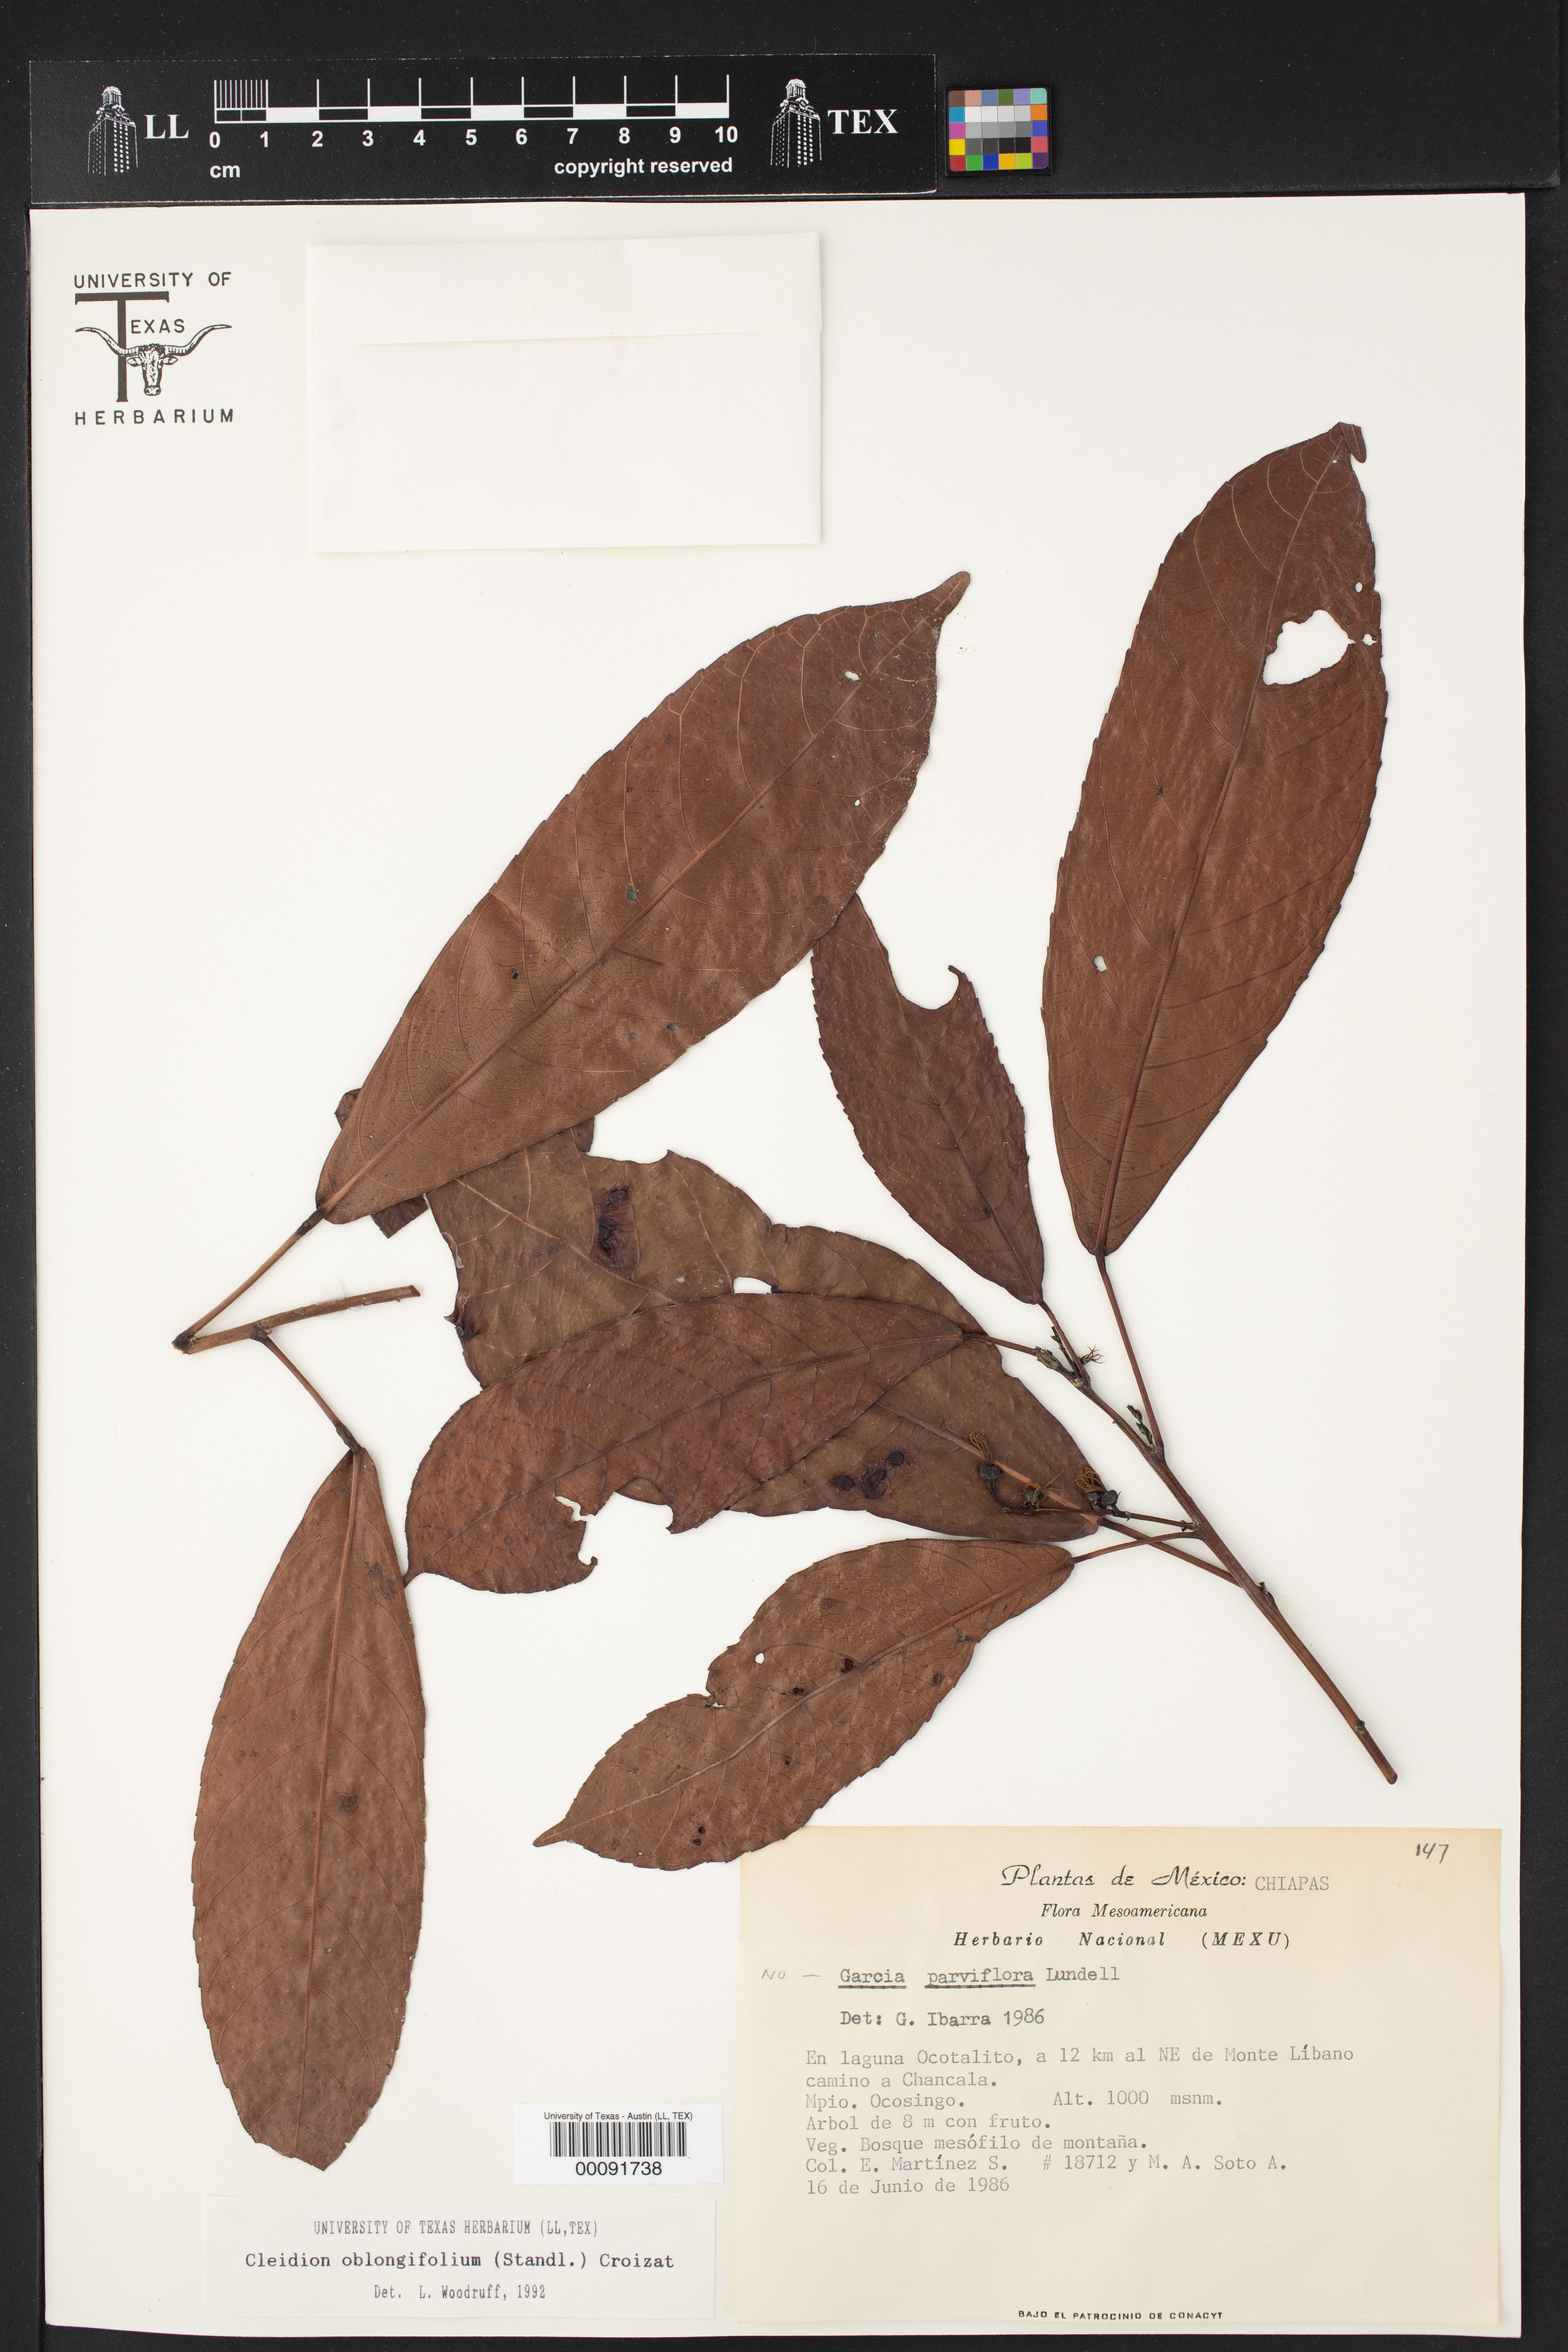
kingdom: Plantae
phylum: Tracheophyta
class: Magnoliopsida
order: Malpighiales
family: Euphorbiaceae
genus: Cleidion
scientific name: Cleidion castaneifolium
